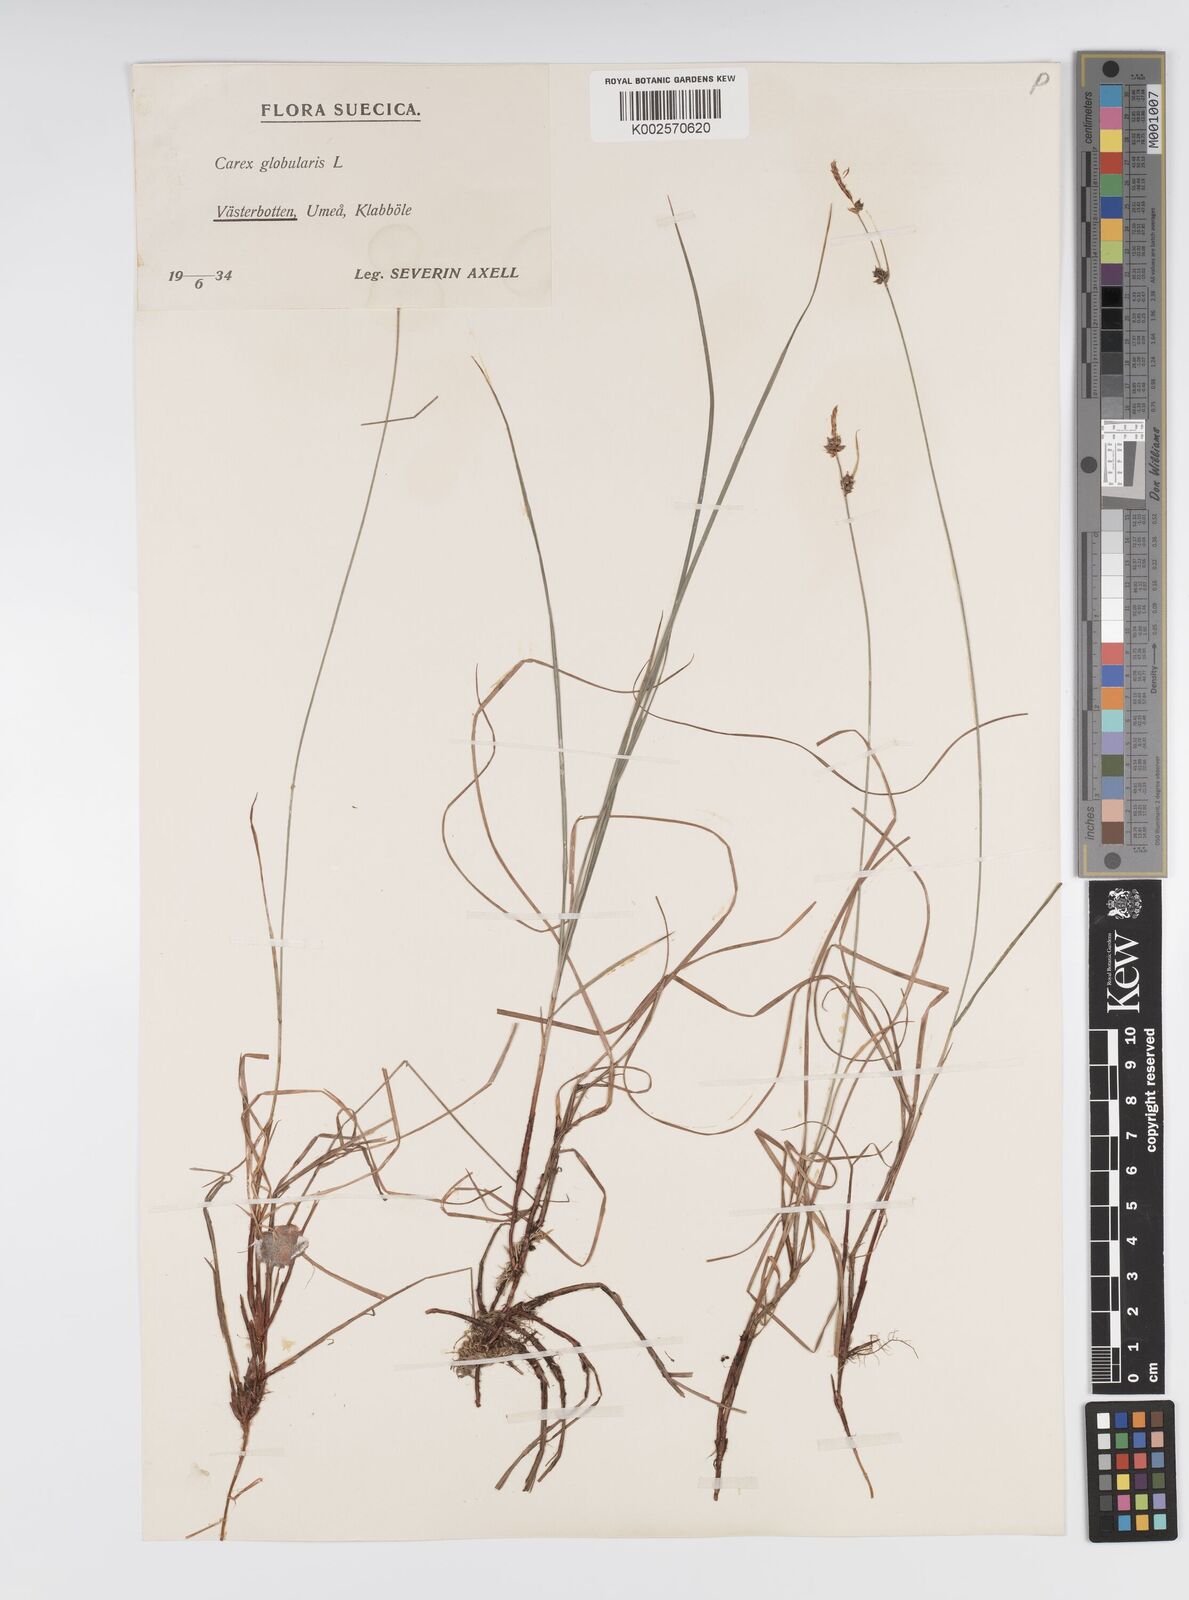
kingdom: Plantae
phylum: Tracheophyta
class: Liliopsida
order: Poales
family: Cyperaceae
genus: Carex
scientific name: Carex globularis
